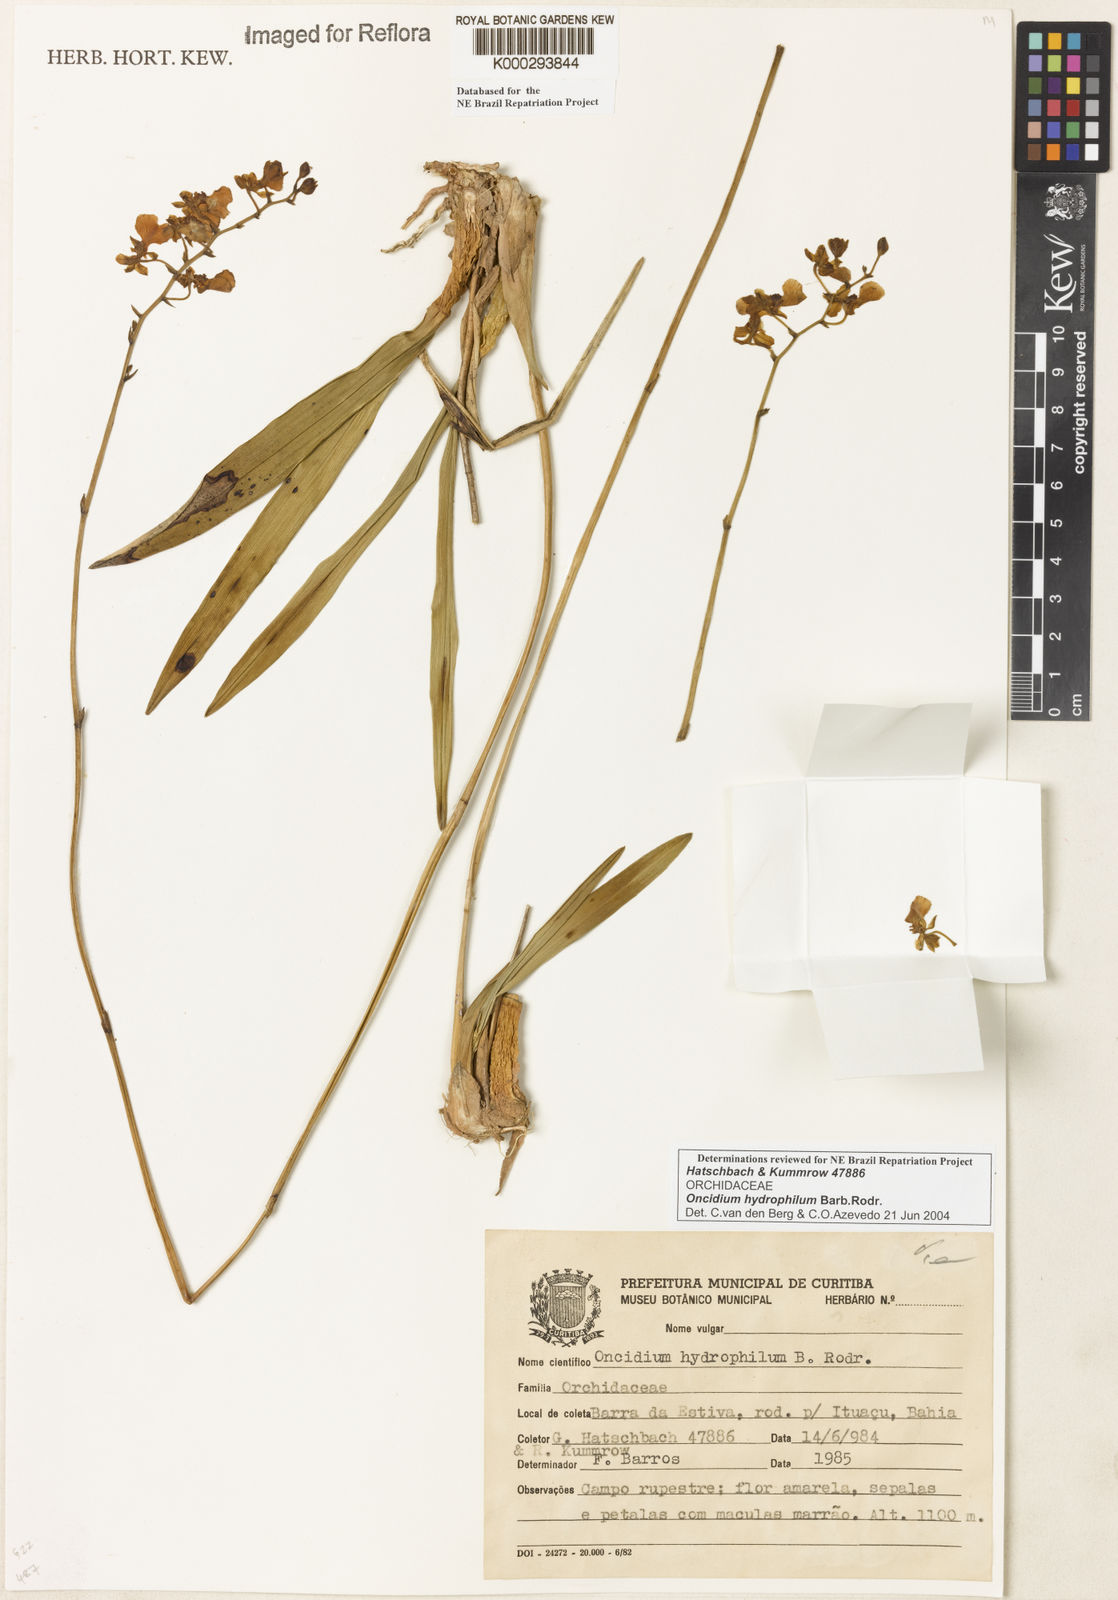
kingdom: Plantae
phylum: Tracheophyta
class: Liliopsida
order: Asparagales
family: Orchidaceae
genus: Gomesa
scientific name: Gomesa sincorana
